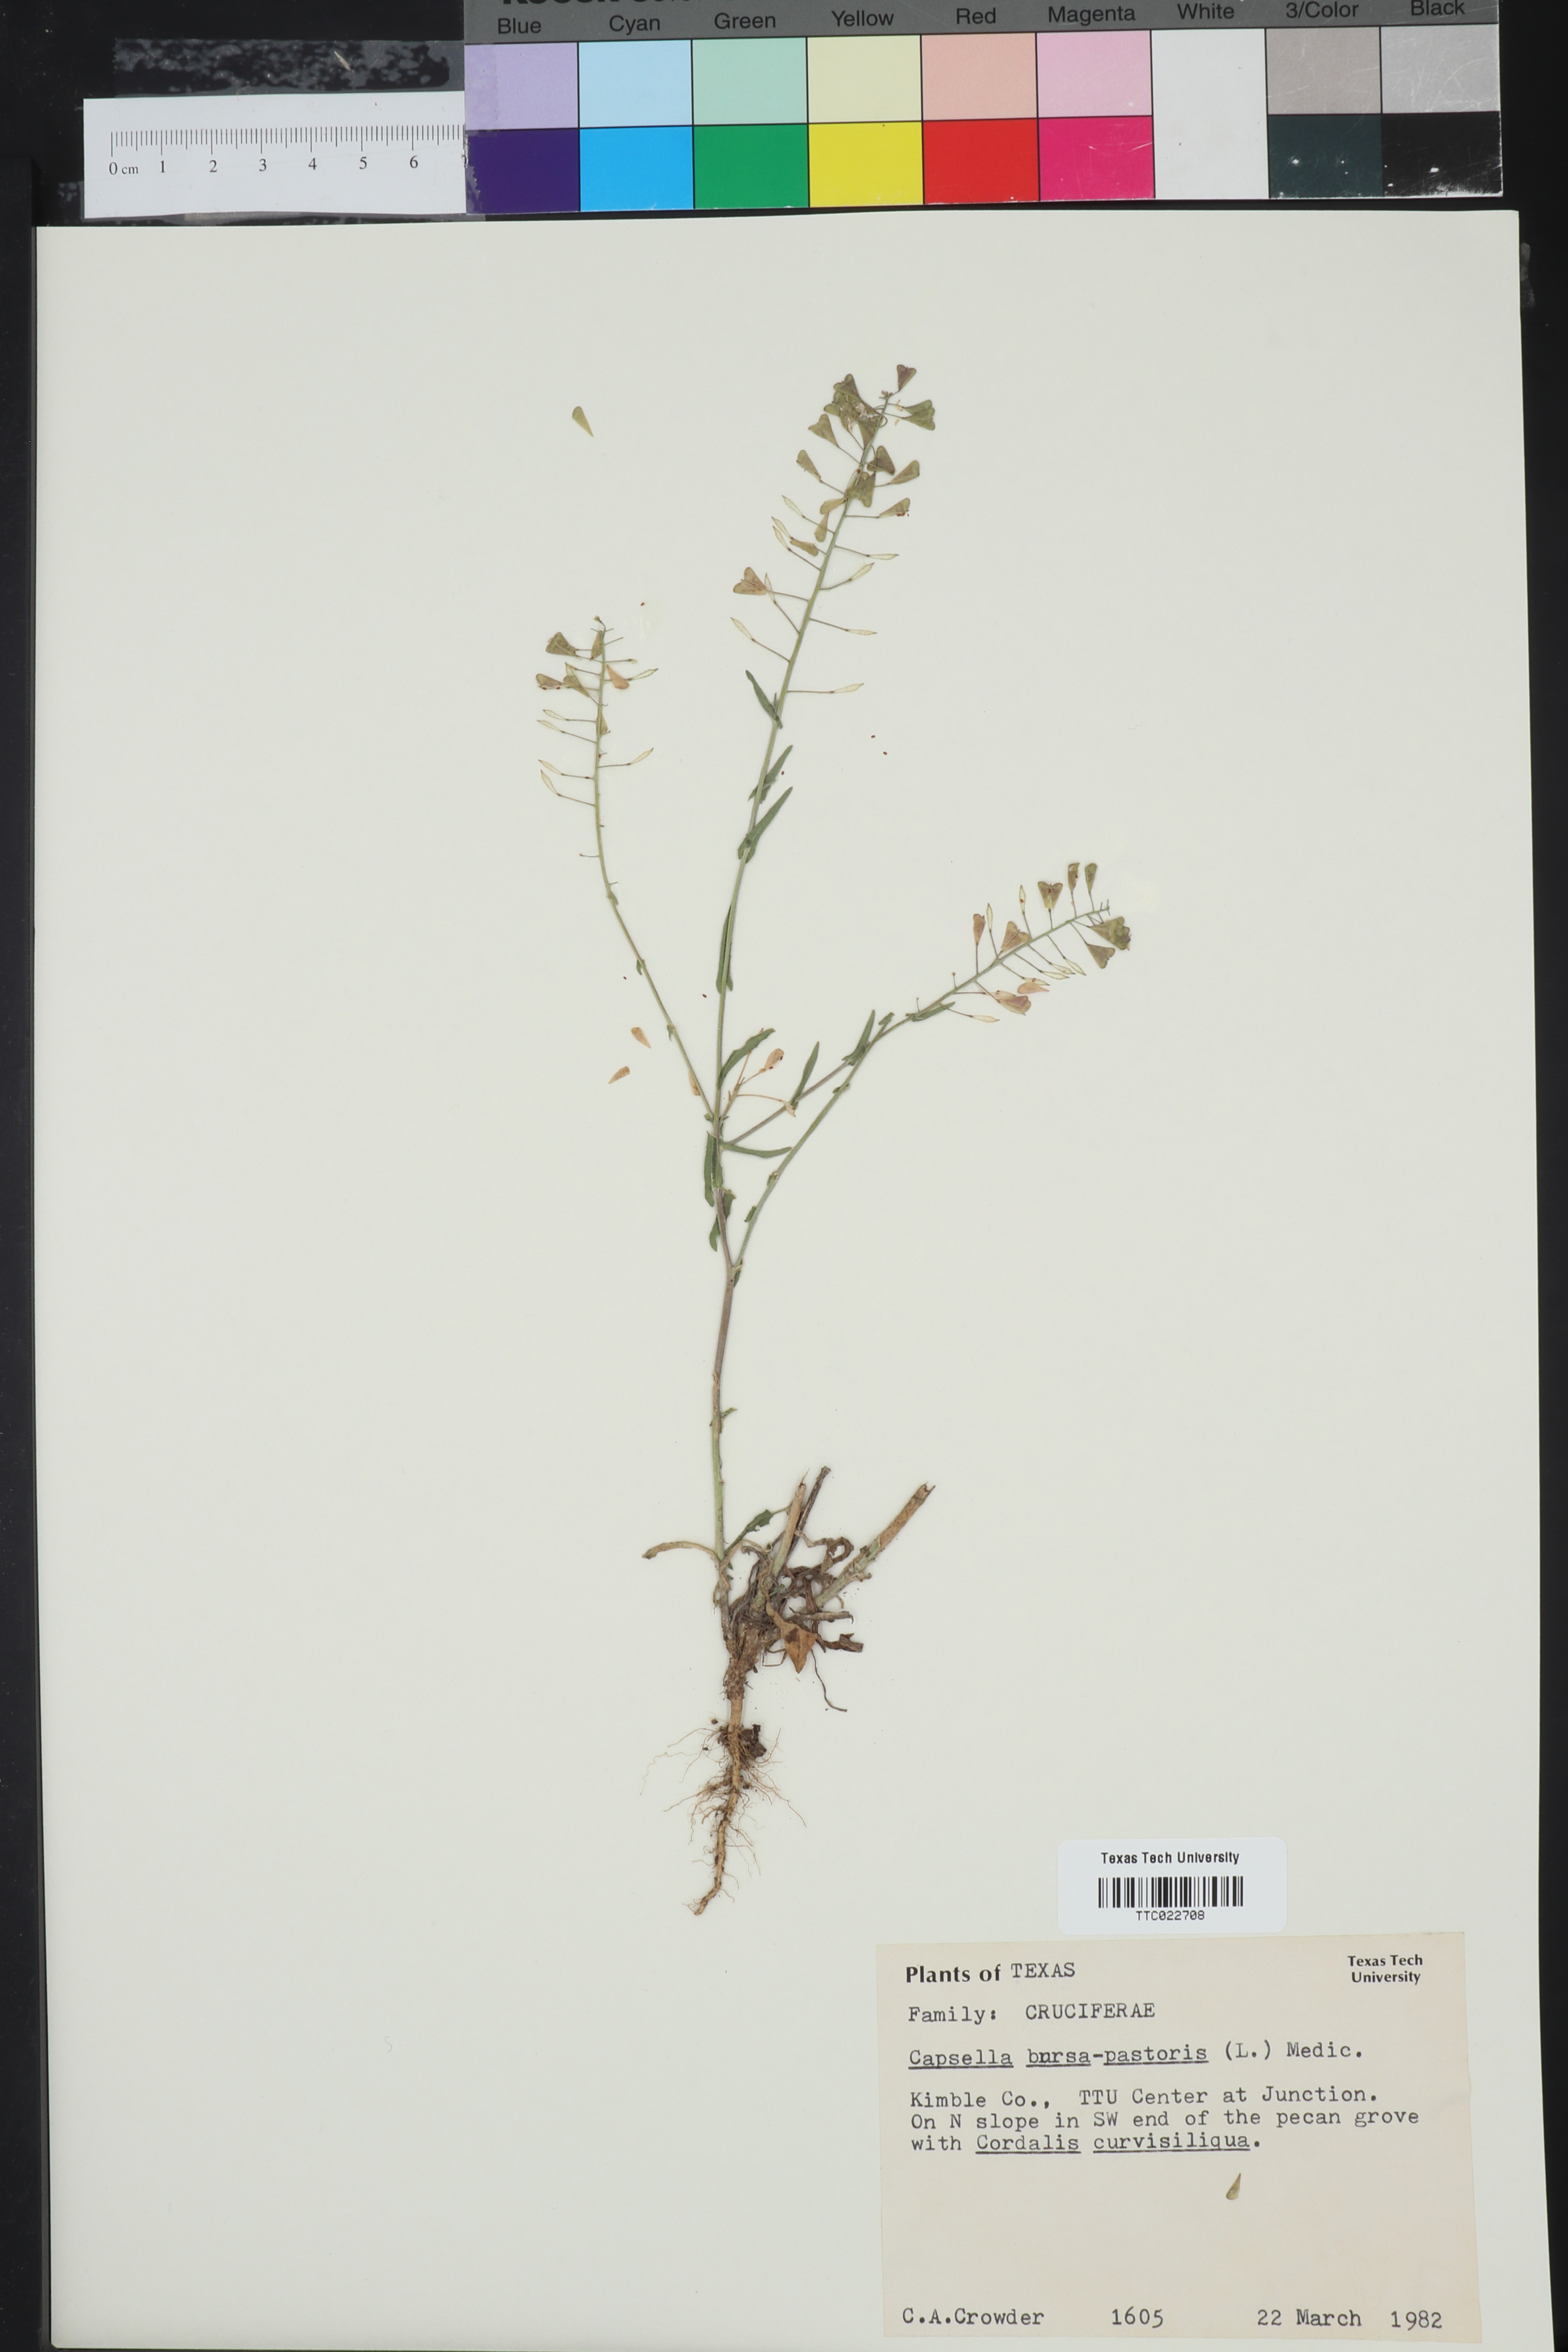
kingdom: Plantae
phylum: Tracheophyta
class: Magnoliopsida
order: Brassicales
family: Brassicaceae
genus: Capsella
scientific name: Capsella bursa-pastoris
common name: Shepherd's purse
